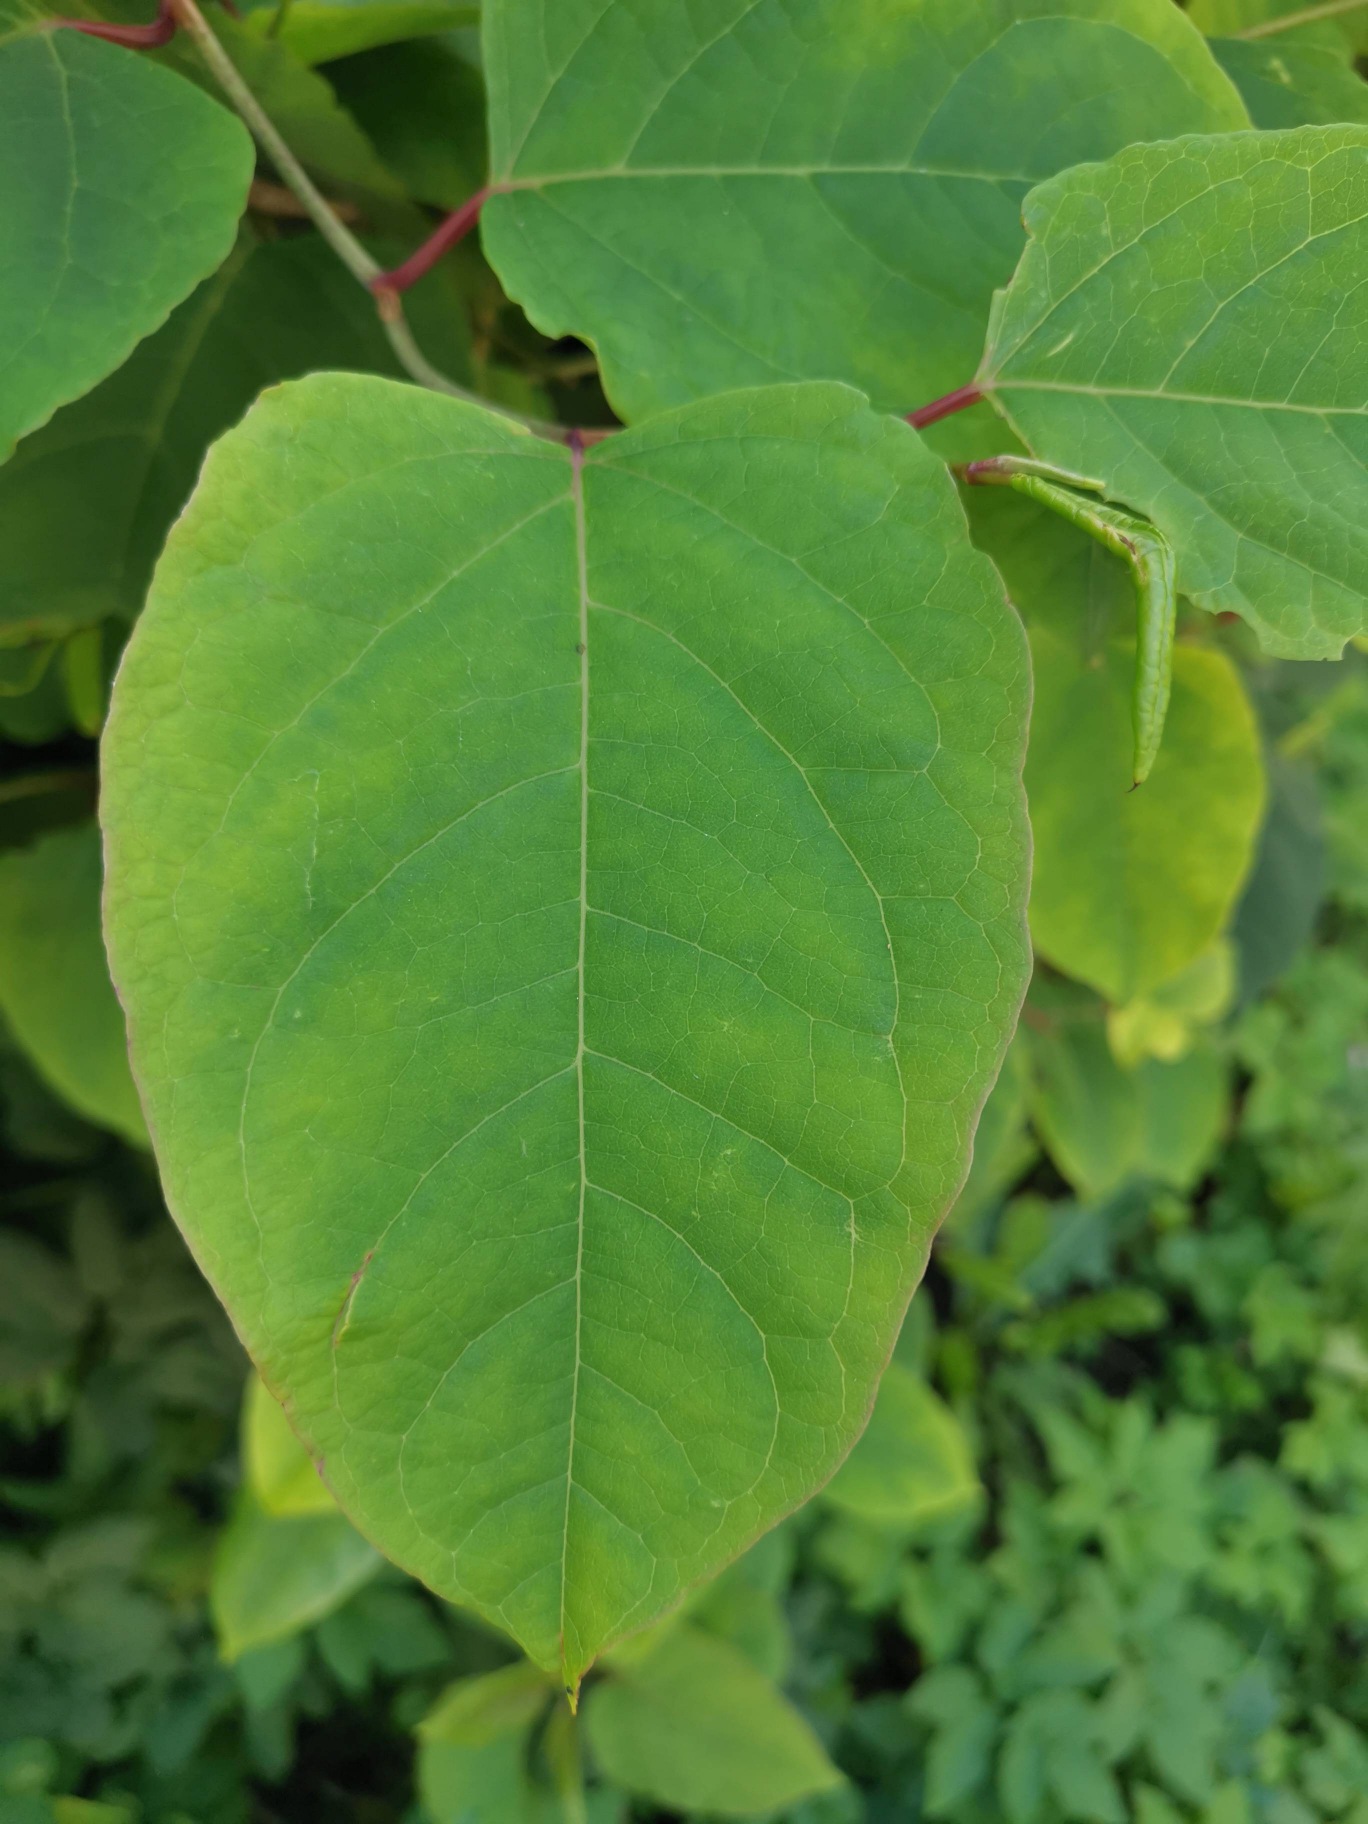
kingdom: Plantae
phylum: Tracheophyta
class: Magnoliopsida
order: Caryophyllales
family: Polygonaceae
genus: Reynoutria
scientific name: Reynoutria japonica
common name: Japan-pileurt
